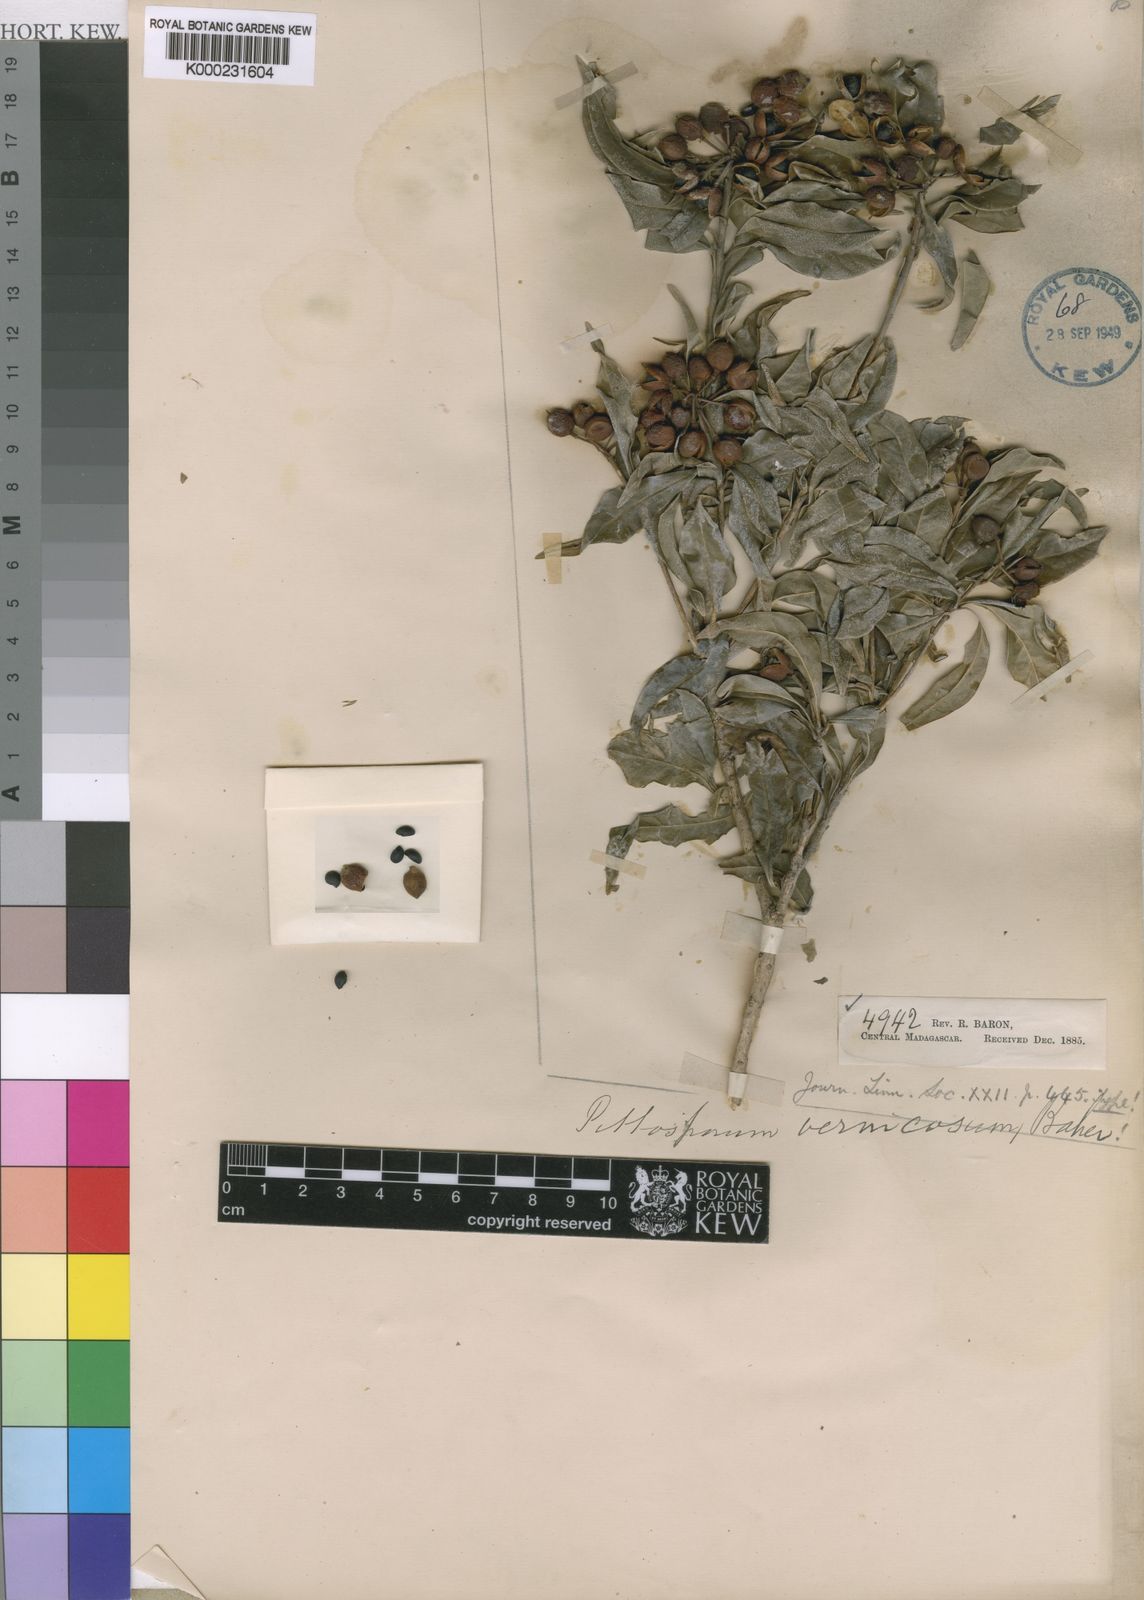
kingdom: Plantae
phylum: Tracheophyta
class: Magnoliopsida
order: Apiales
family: Pittosporaceae
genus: Pittosporum
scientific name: Pittosporum senacia
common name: Cheesewood
